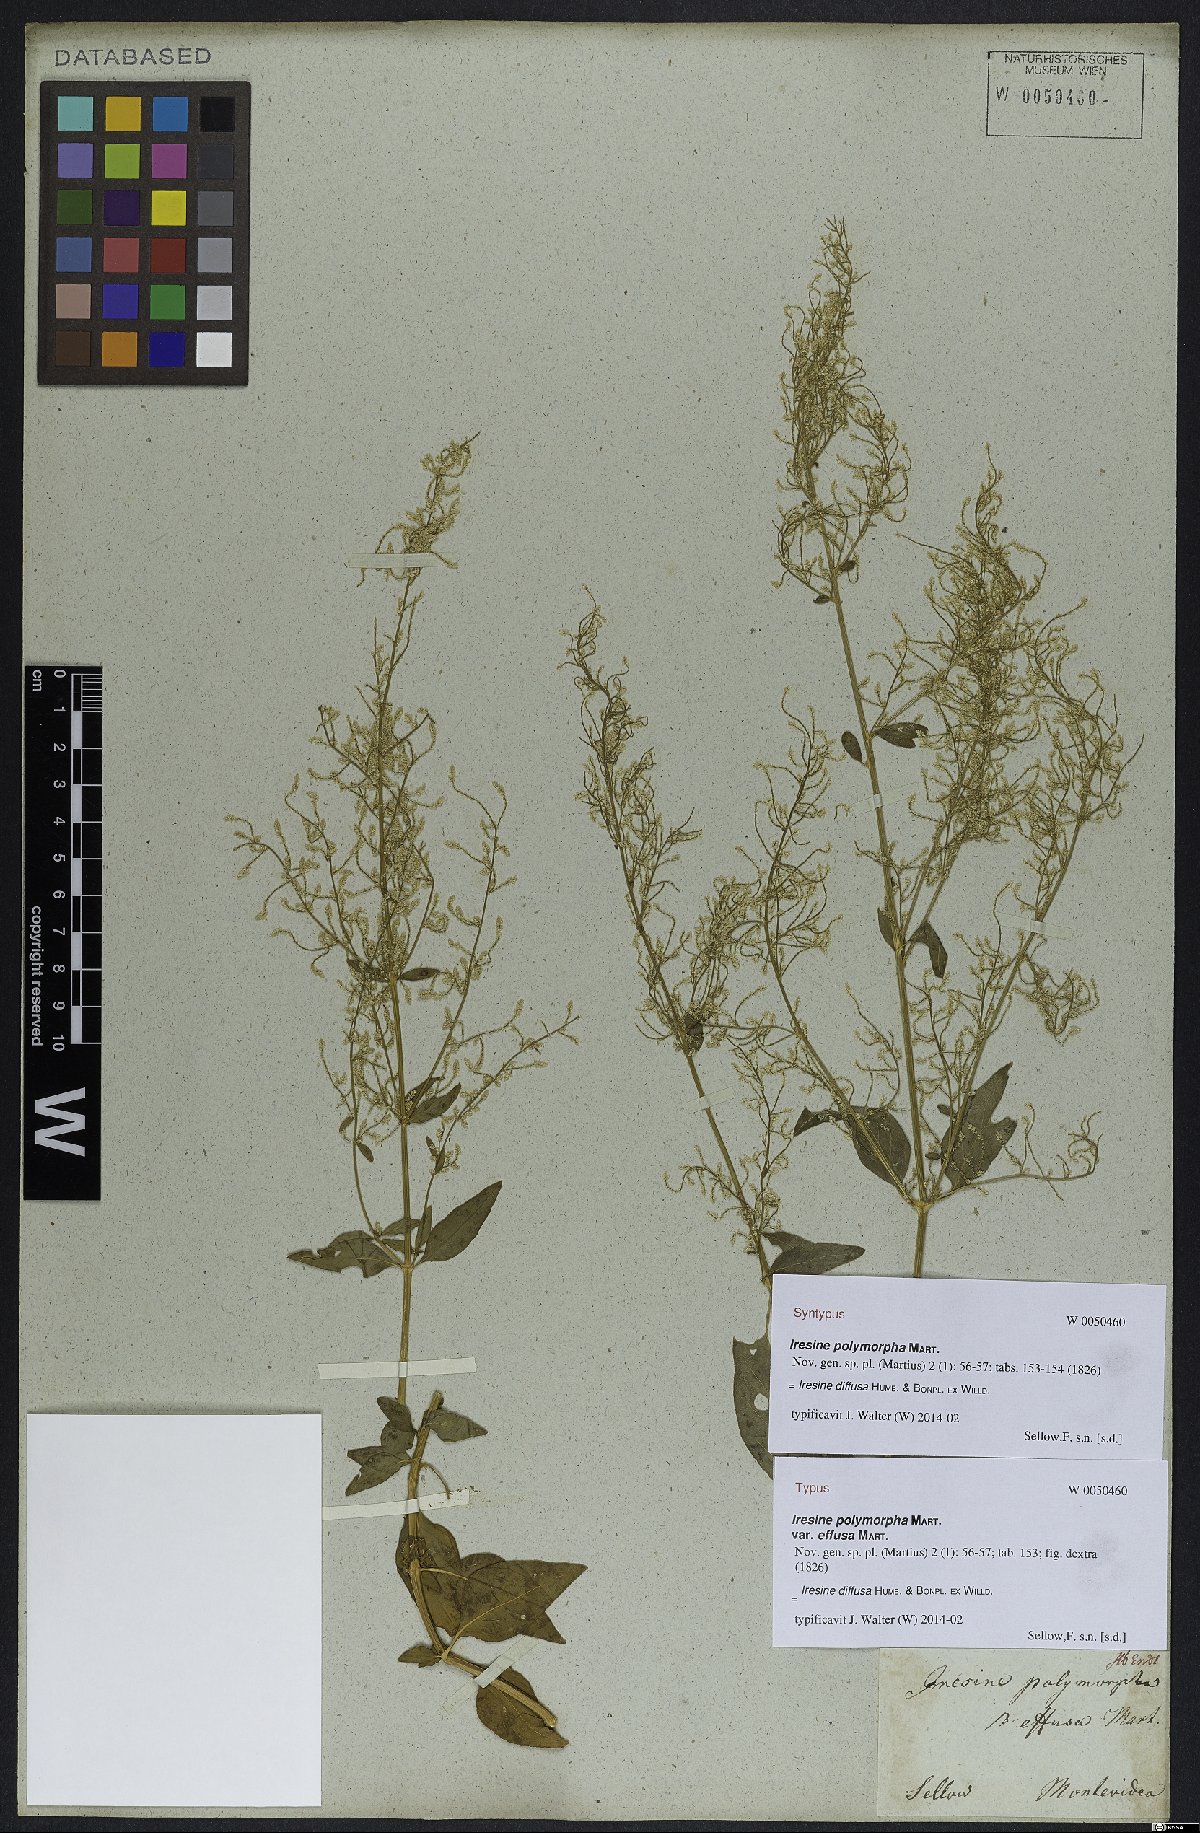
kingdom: Plantae
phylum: Tracheophyta
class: Magnoliopsida
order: Caryophyllales
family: Amaranthaceae
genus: Iresine
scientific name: Iresine diffusa
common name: Juba's-bush
